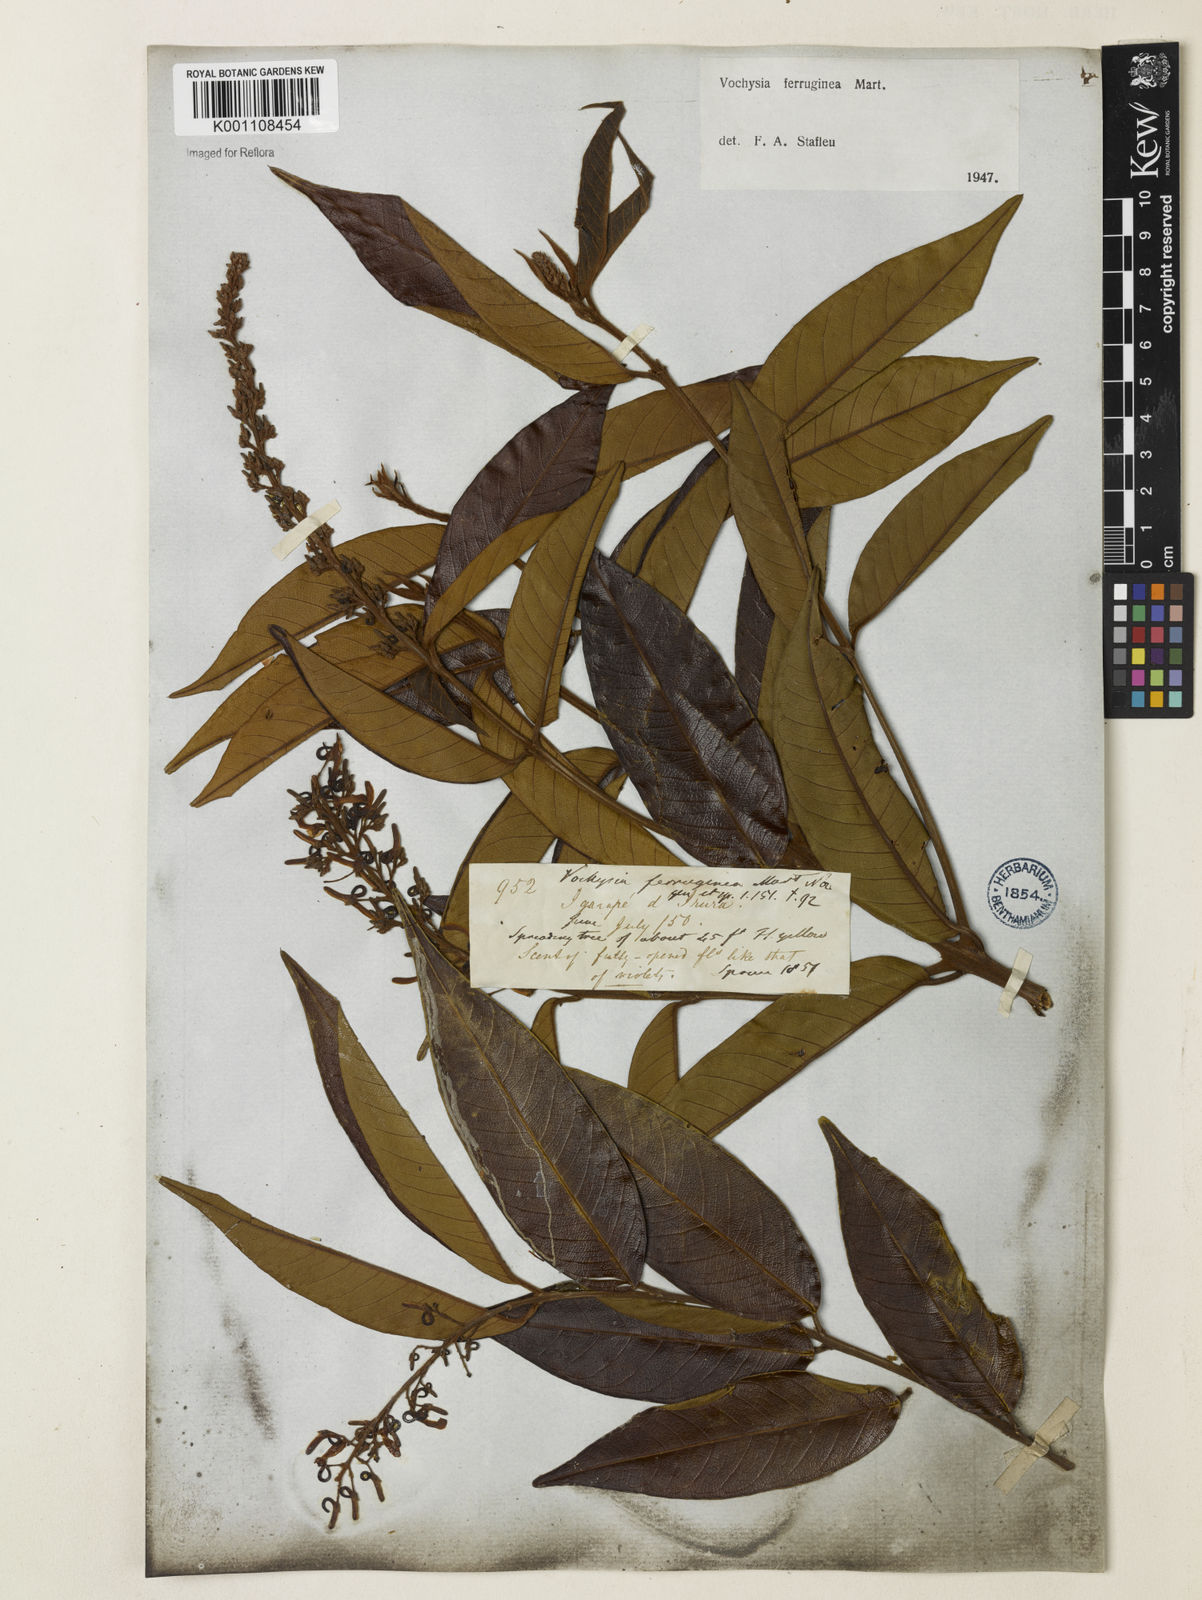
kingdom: Plantae
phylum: Tracheophyta
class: Magnoliopsida
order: Myrtales
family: Vochysiaceae
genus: Vochysia
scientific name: Vochysia ferruginea
